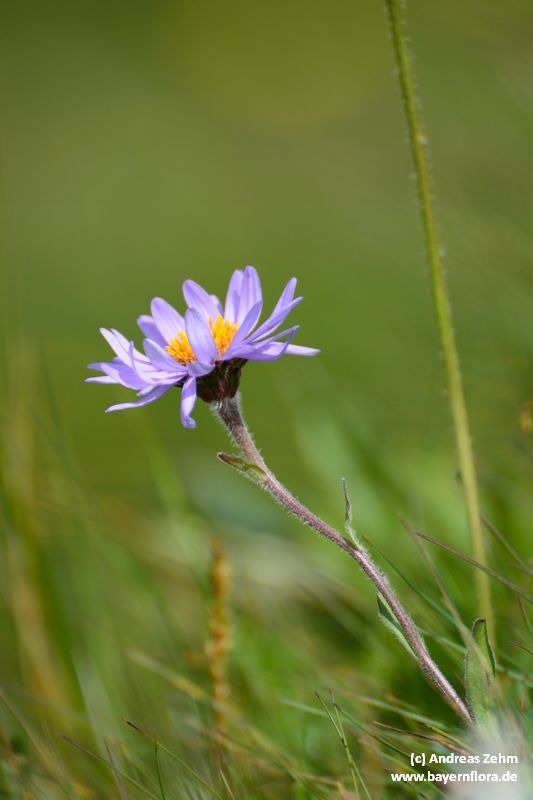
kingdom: Plantae
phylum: Tracheophyta
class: Magnoliopsida
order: Asterales
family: Asteraceae
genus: Aster
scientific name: Aster alpinus
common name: Alpine aster
